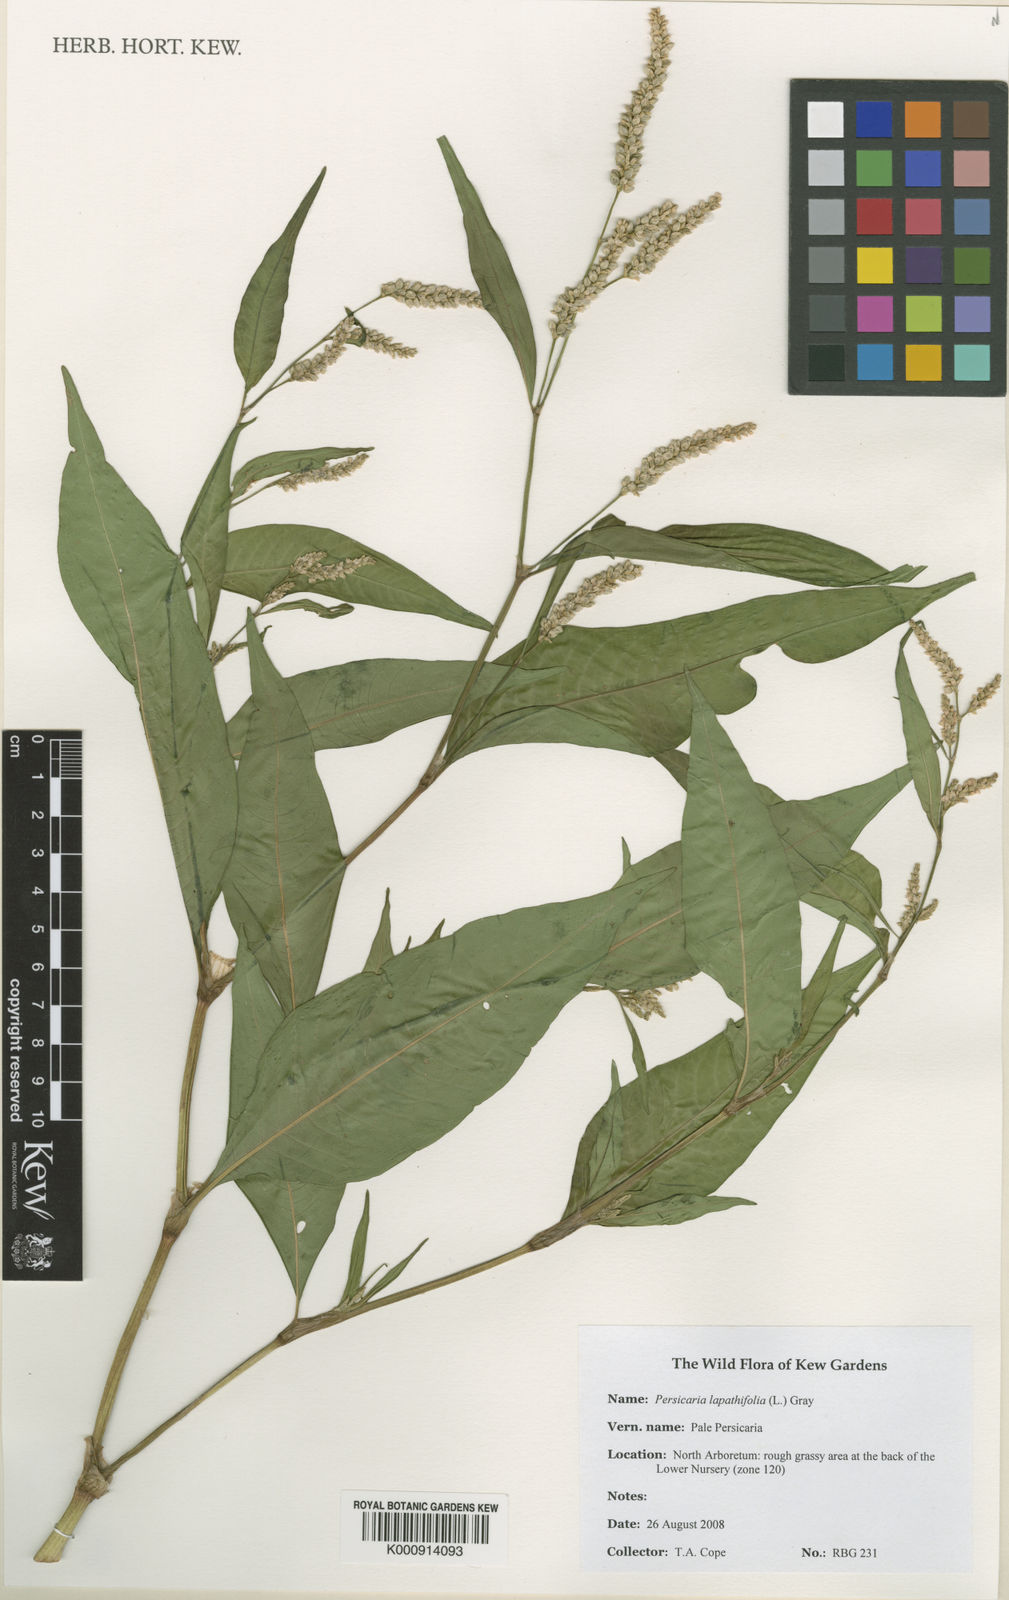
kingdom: Plantae
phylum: Tracheophyta
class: Magnoliopsida
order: Caryophyllales
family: Polygonaceae
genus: Persicaria
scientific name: Persicaria
